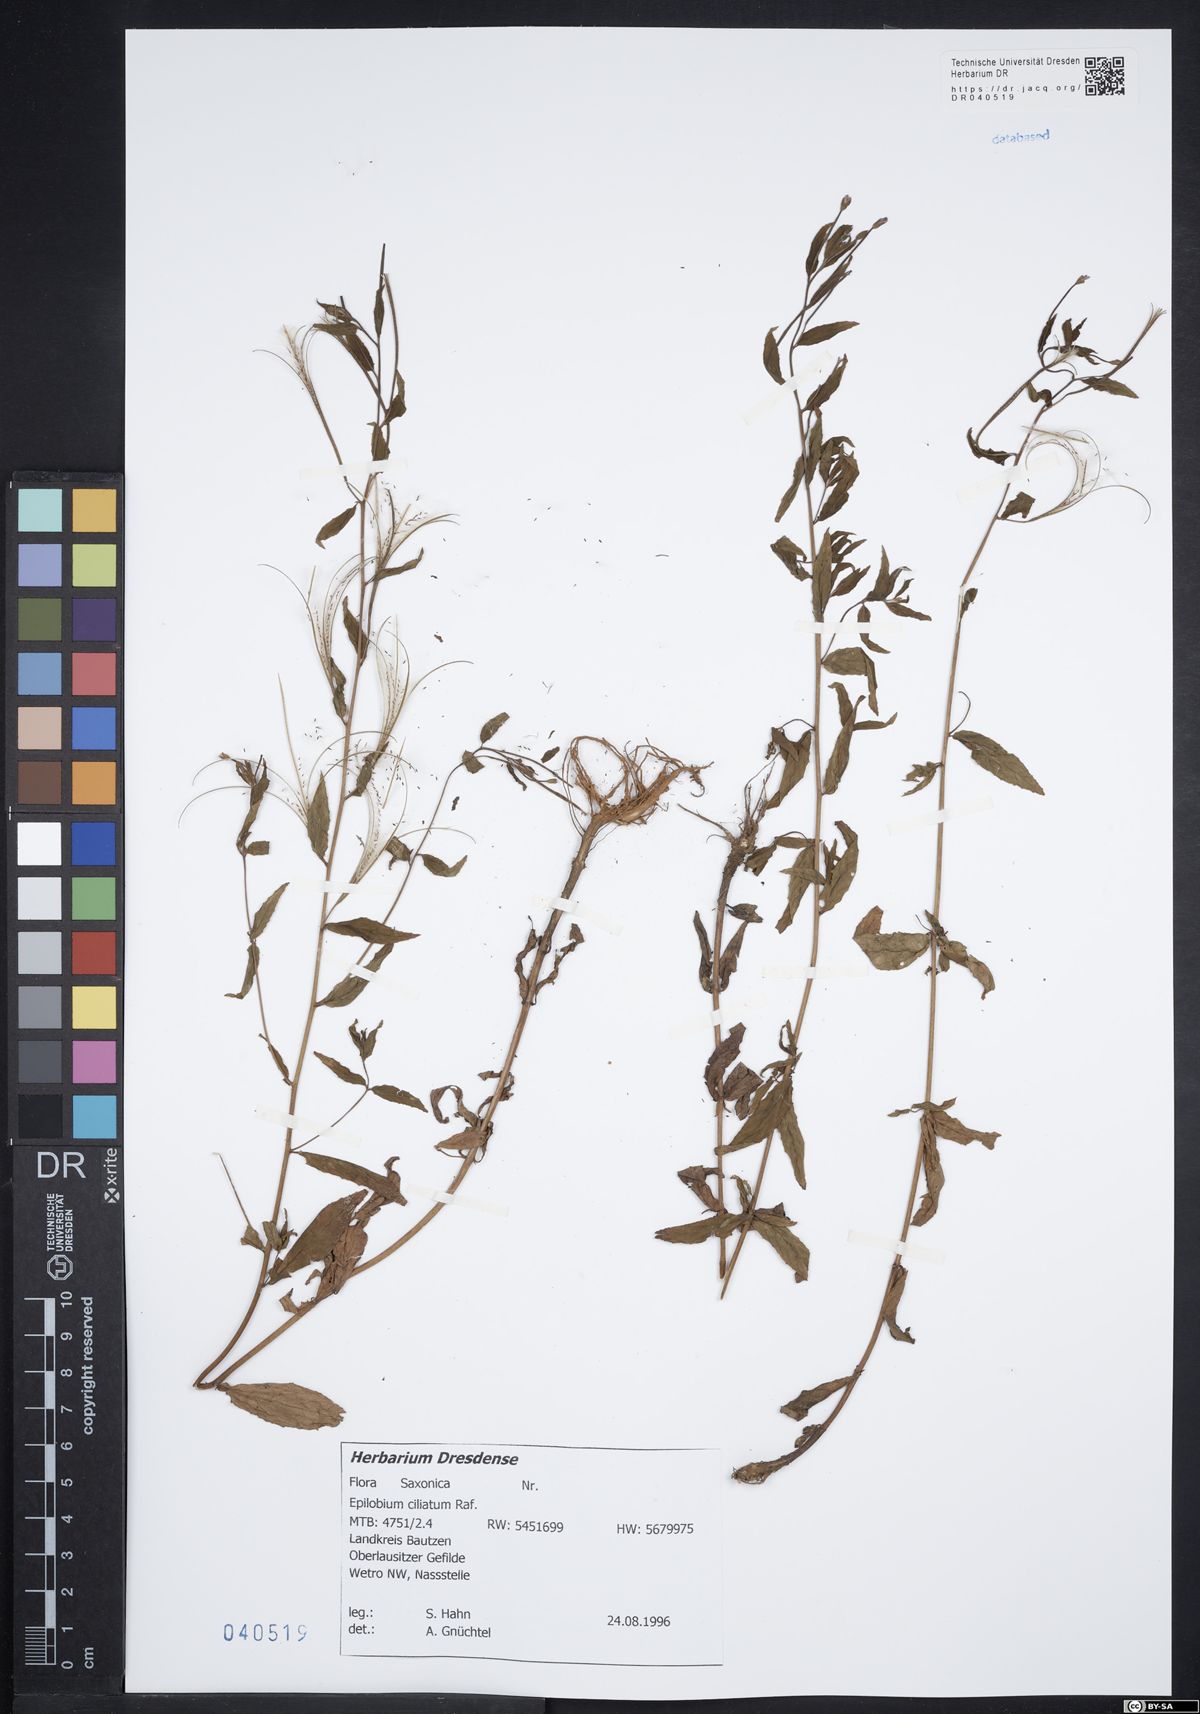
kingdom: Plantae
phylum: Tracheophyta
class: Magnoliopsida
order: Myrtales
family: Onagraceae
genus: Epilobium
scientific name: Epilobium ciliatum
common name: American willowherb
